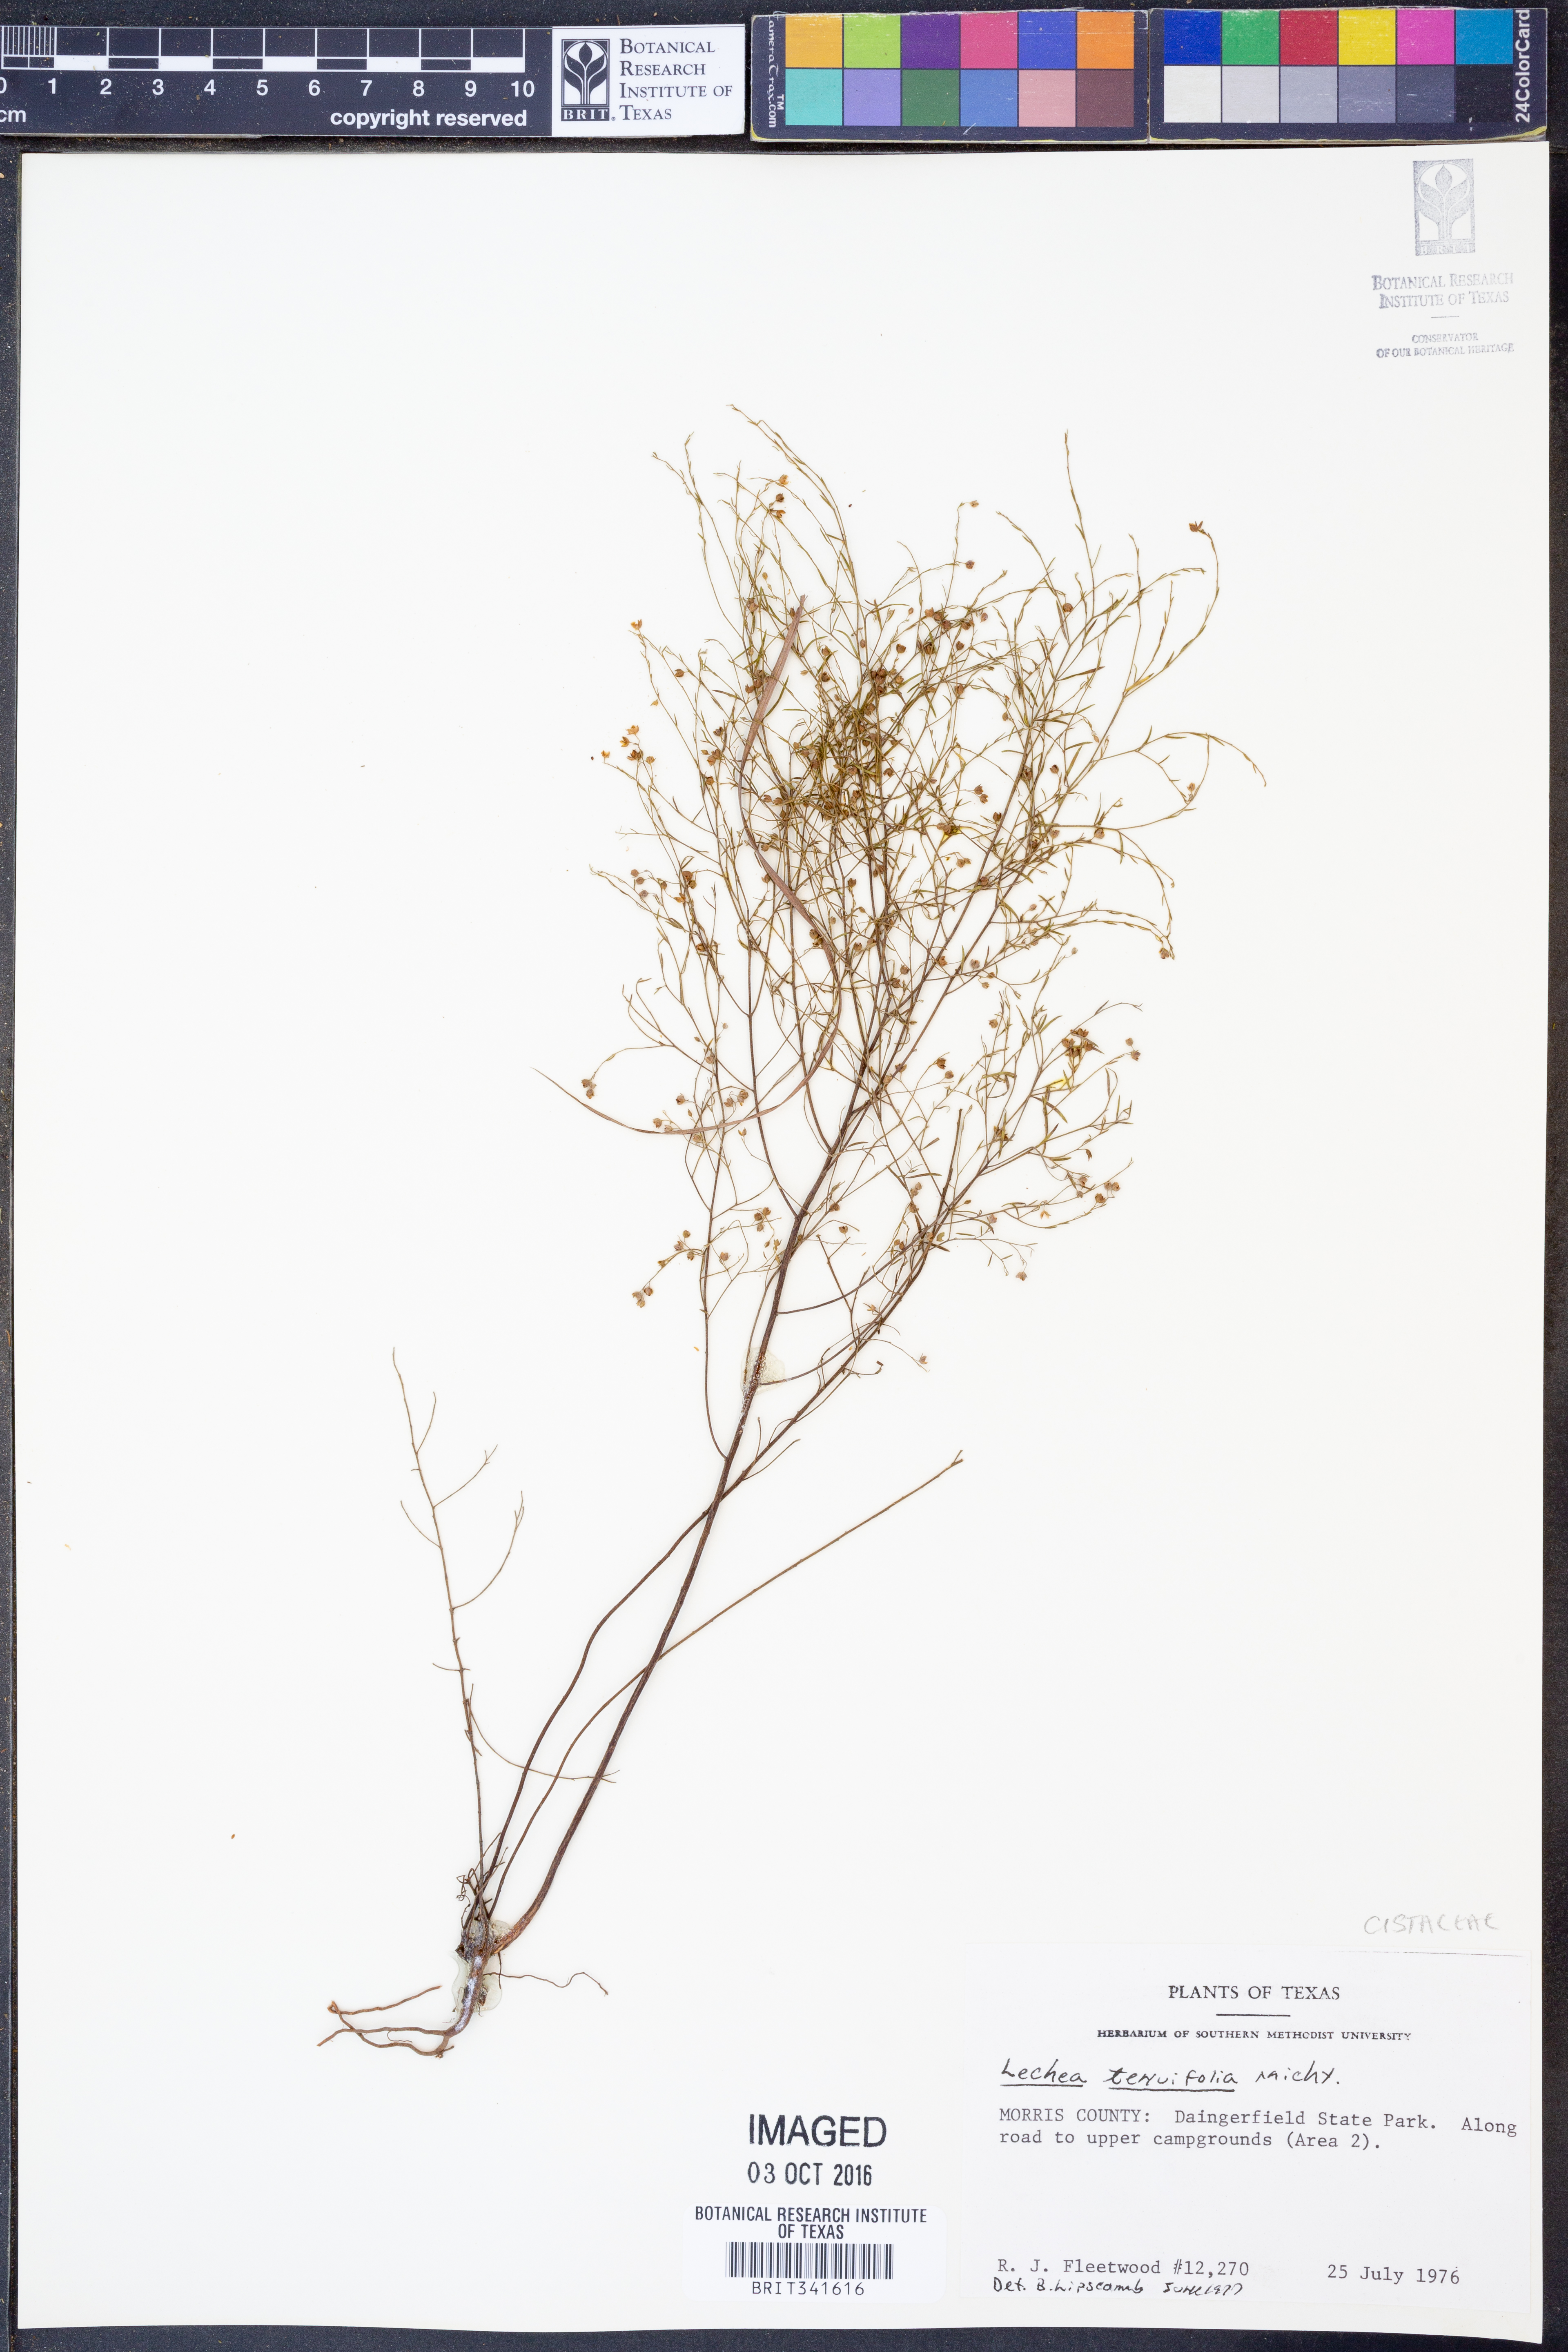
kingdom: Plantae
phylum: Tracheophyta
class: Magnoliopsida
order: Malvales
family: Cistaceae
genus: Lechea
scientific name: Lechea tenuifolia
